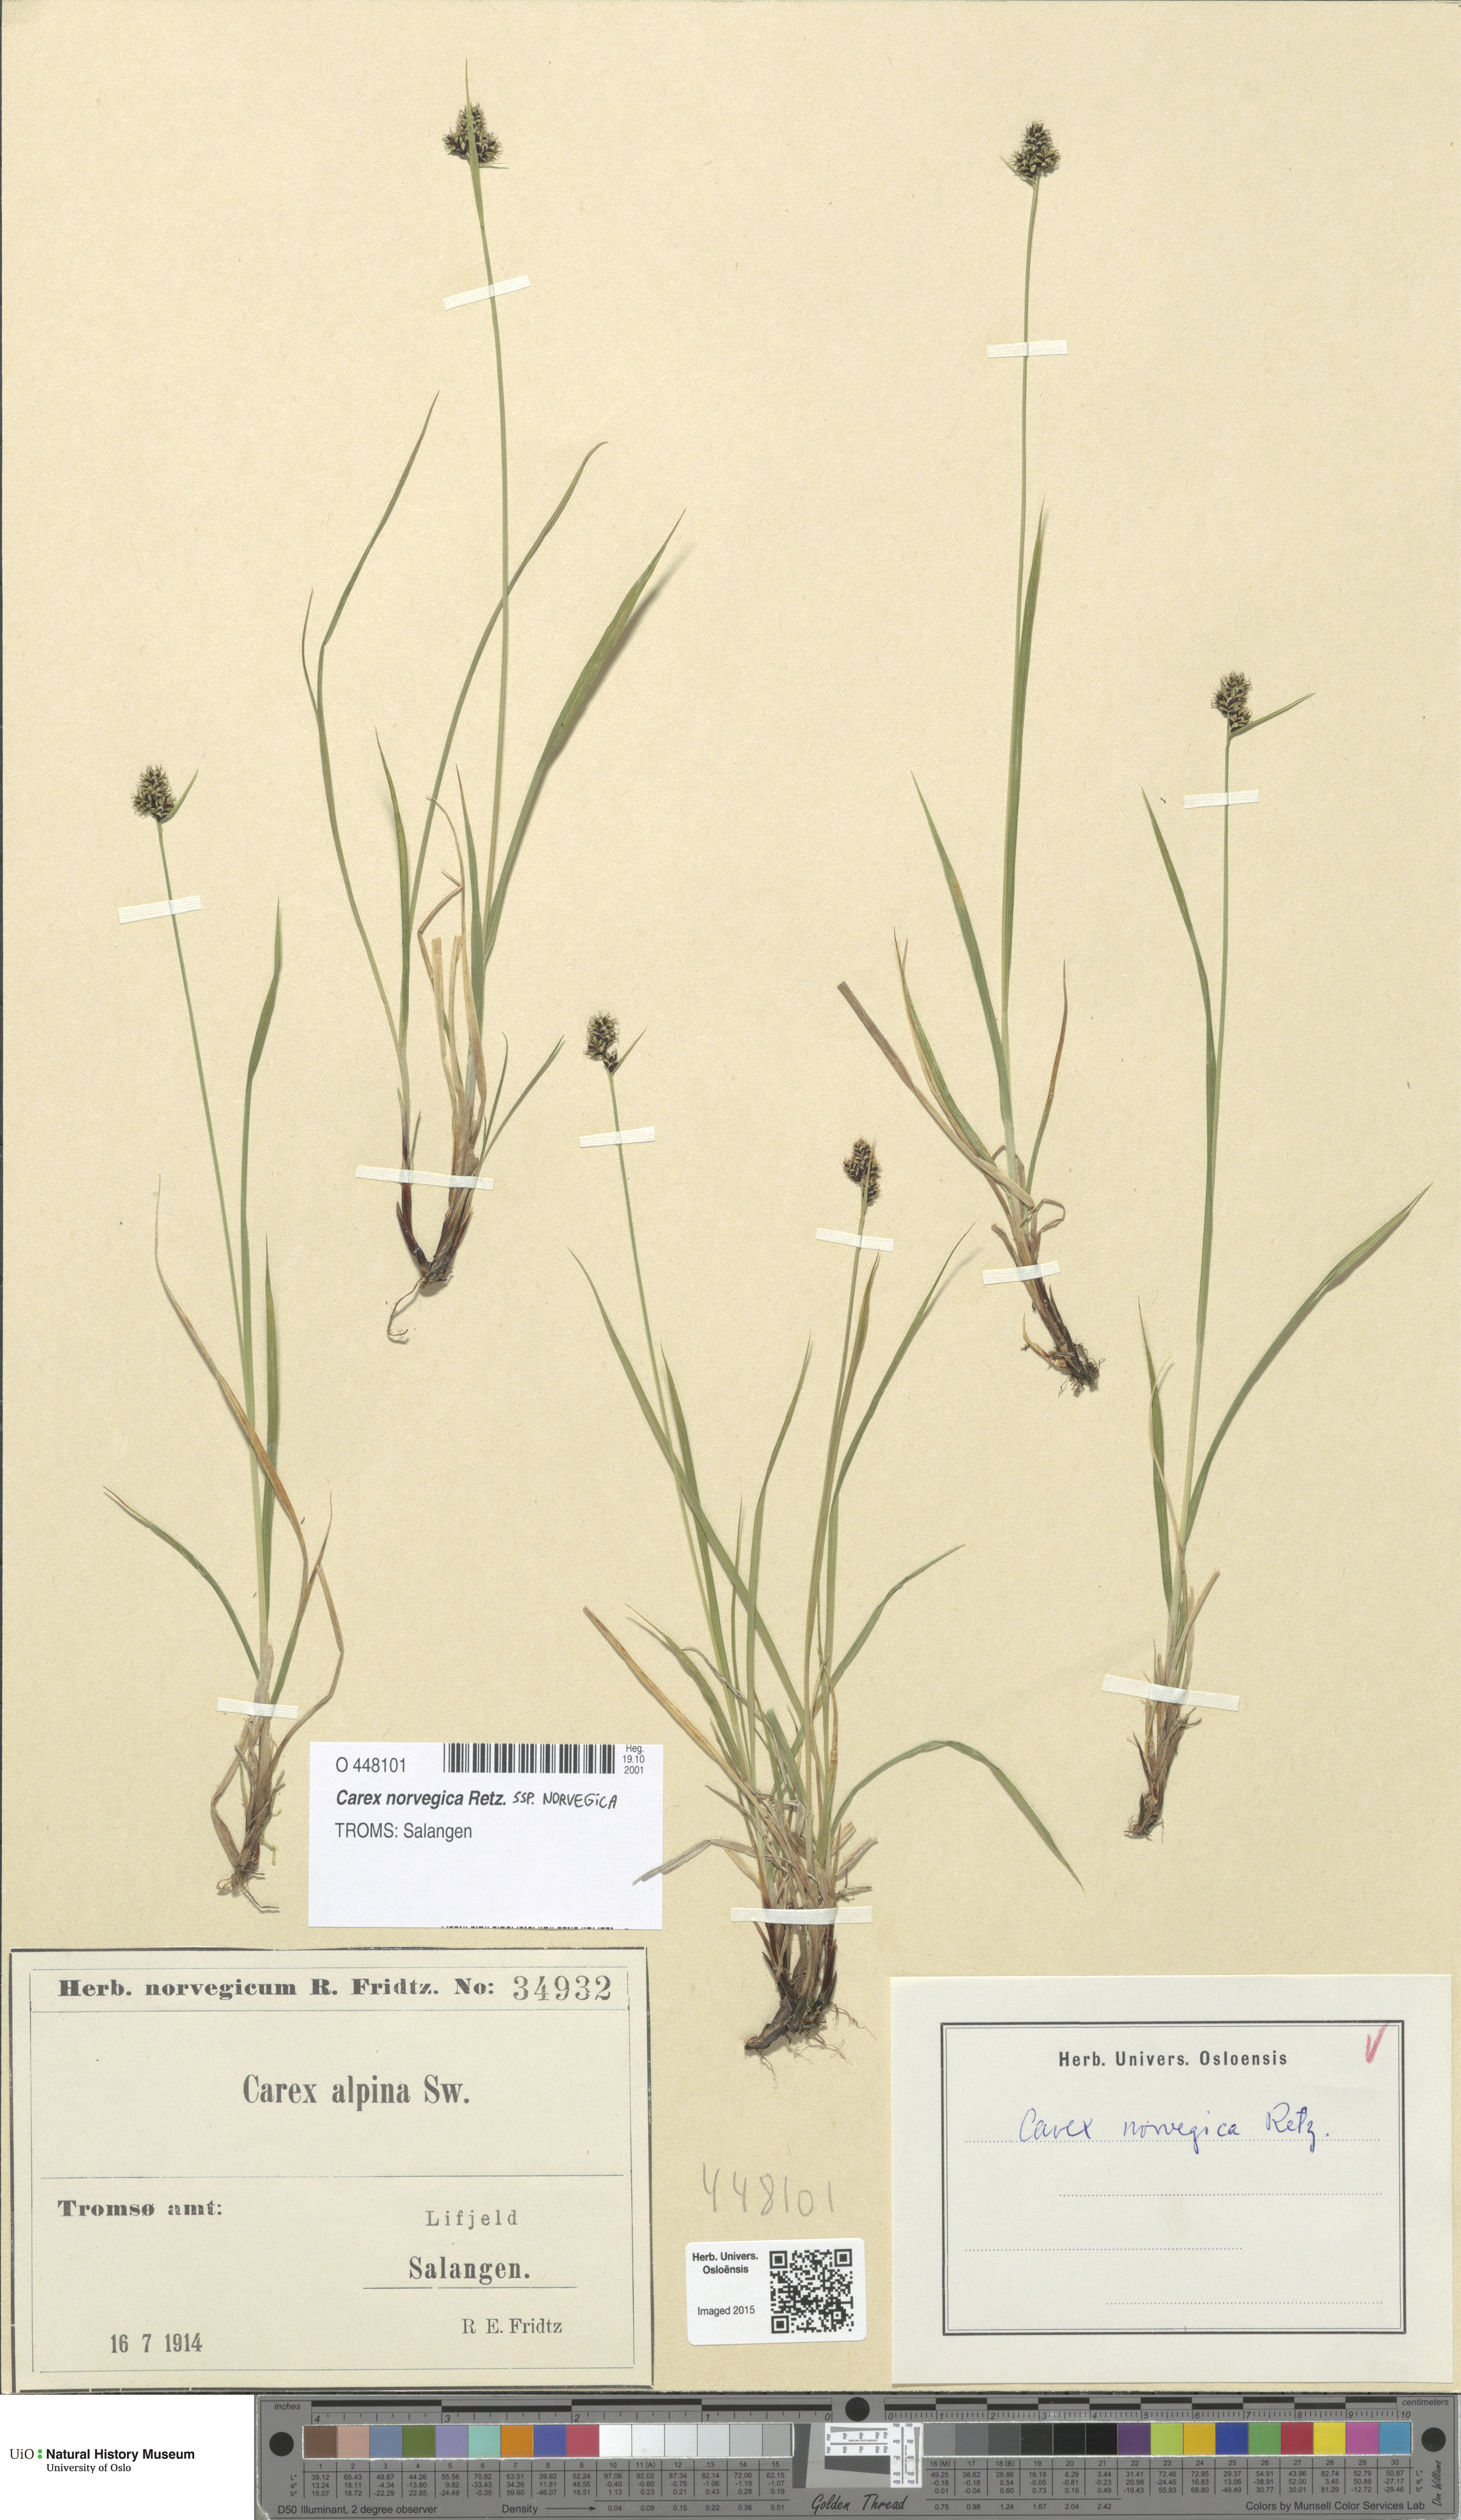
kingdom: Plantae
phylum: Tracheophyta
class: Liliopsida
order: Poales
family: Cyperaceae
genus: Carex
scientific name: Carex norvegica
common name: Close-headed alpine-sedge
